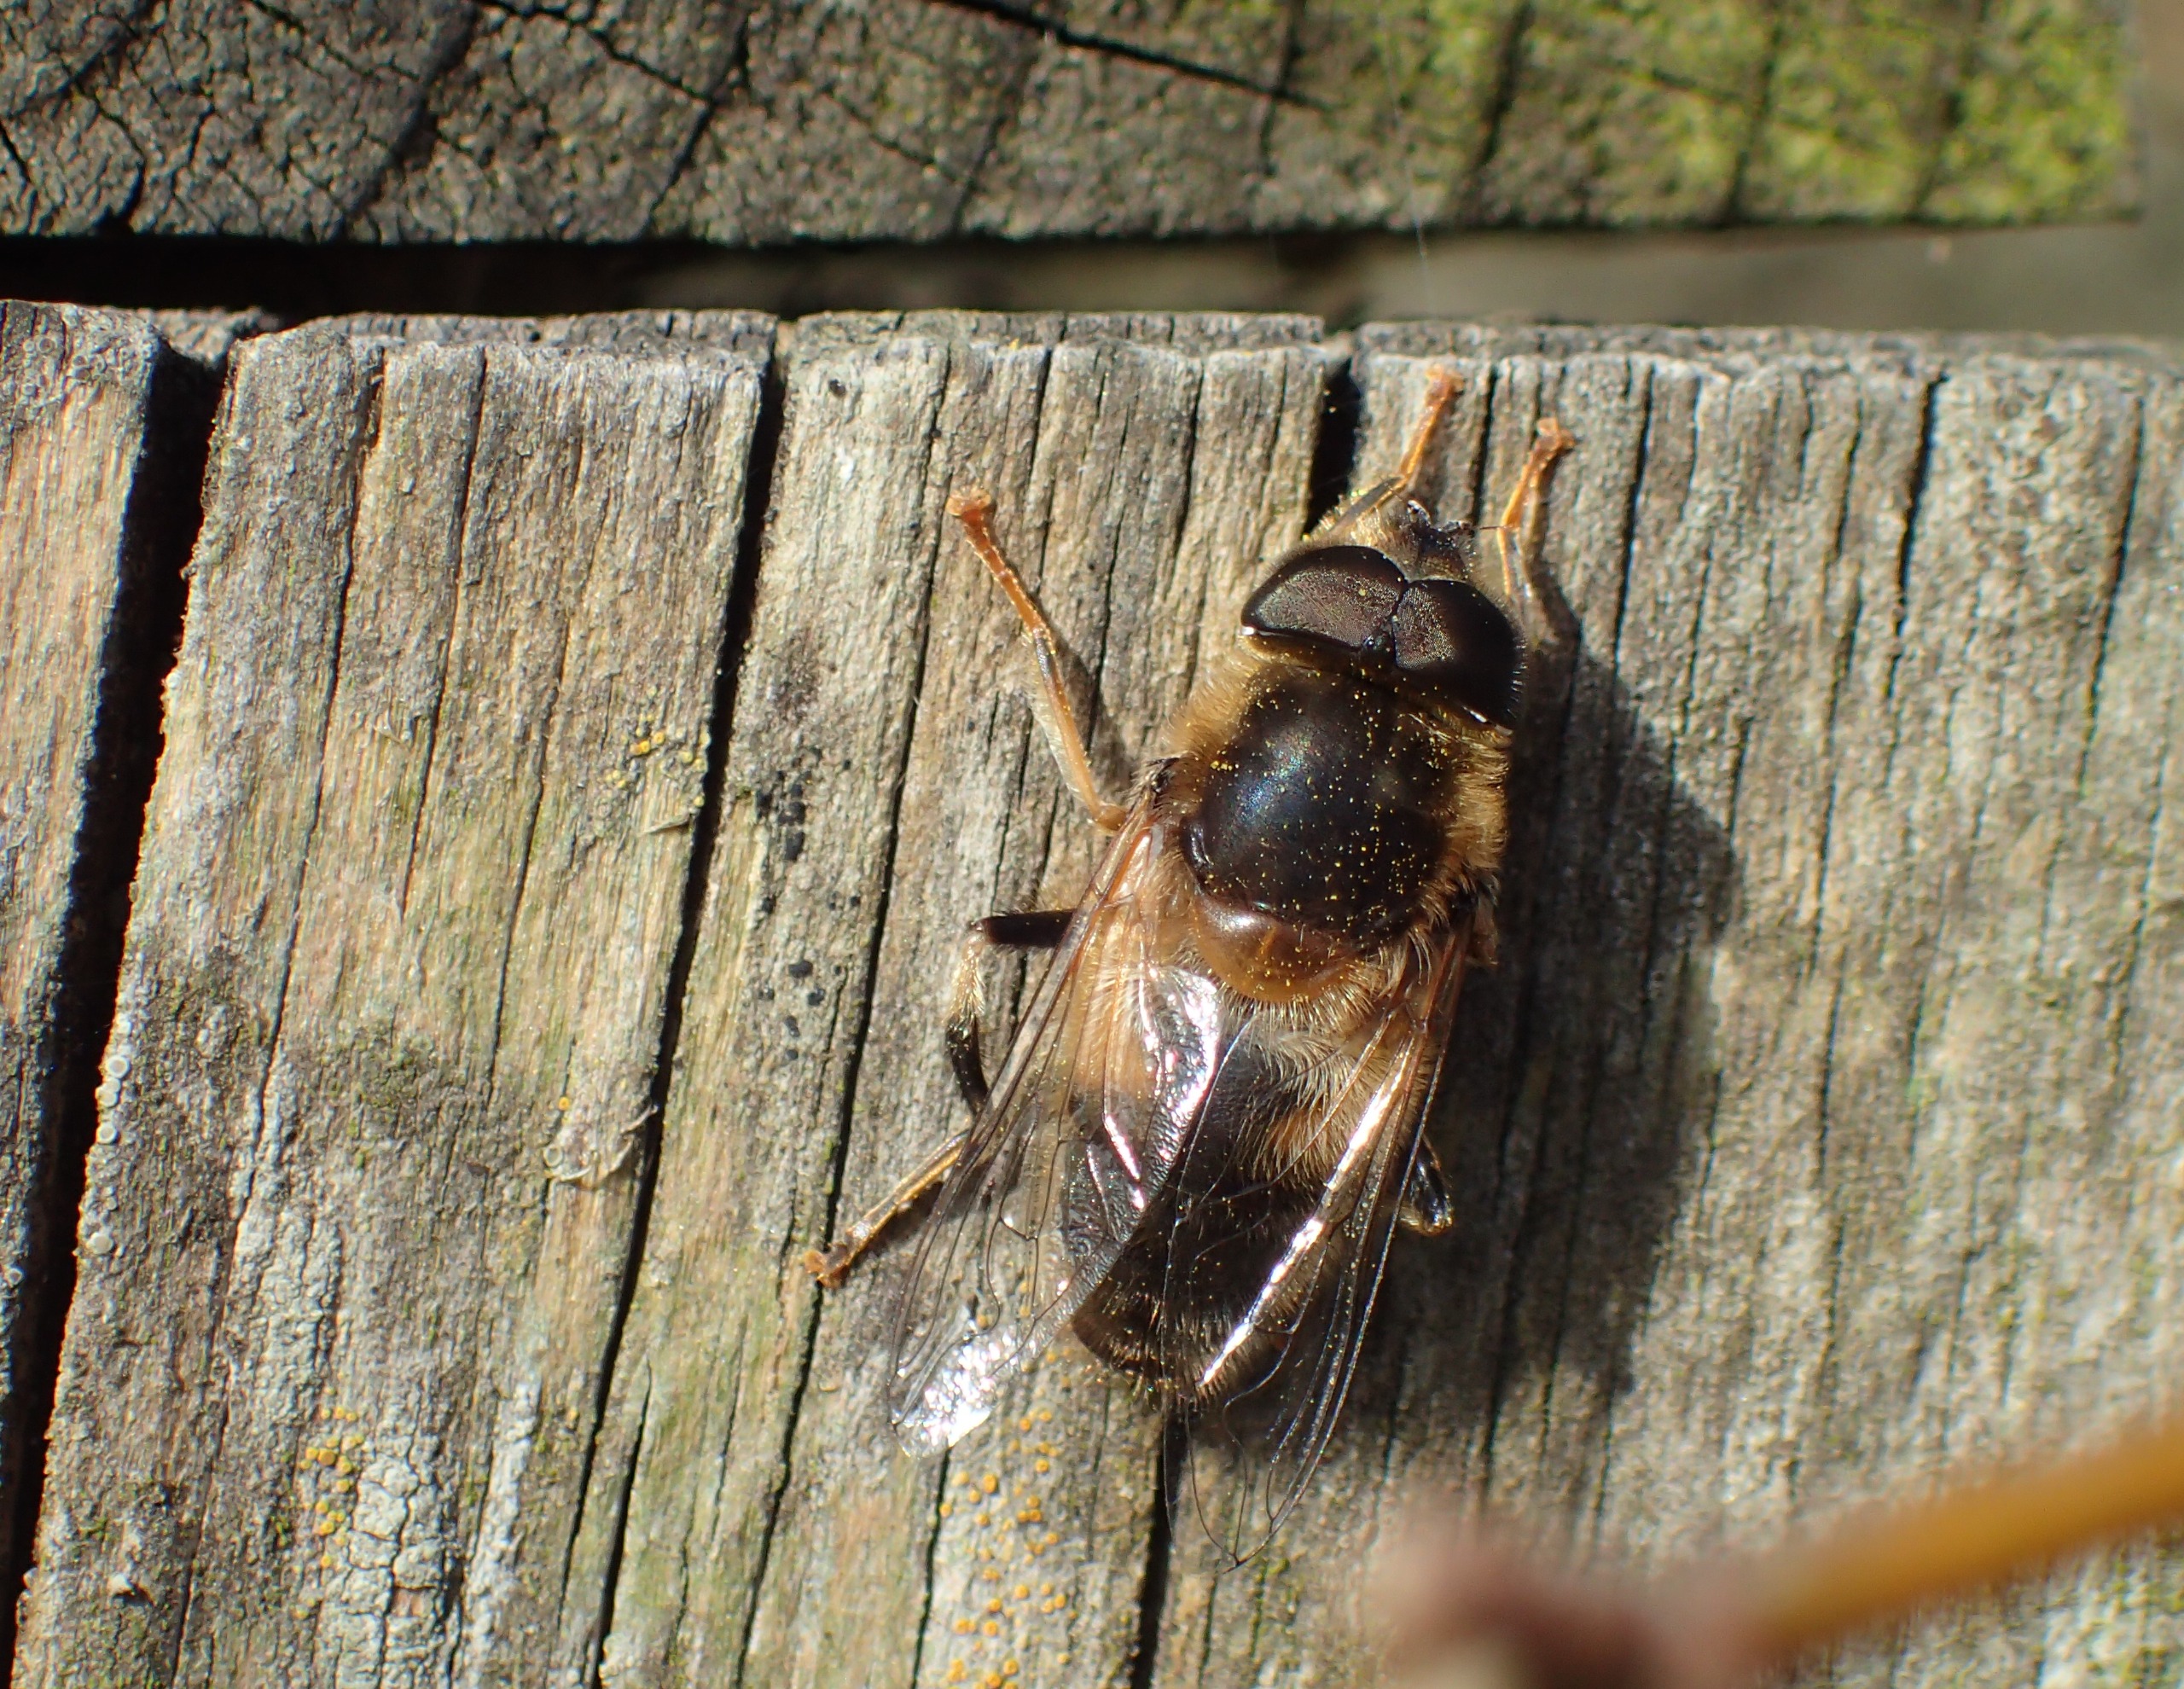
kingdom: Animalia
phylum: Arthropoda
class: Insecta
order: Diptera
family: Syrphidae
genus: Eristalis
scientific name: Eristalis pertinax
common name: Gulfodet dyndflue
